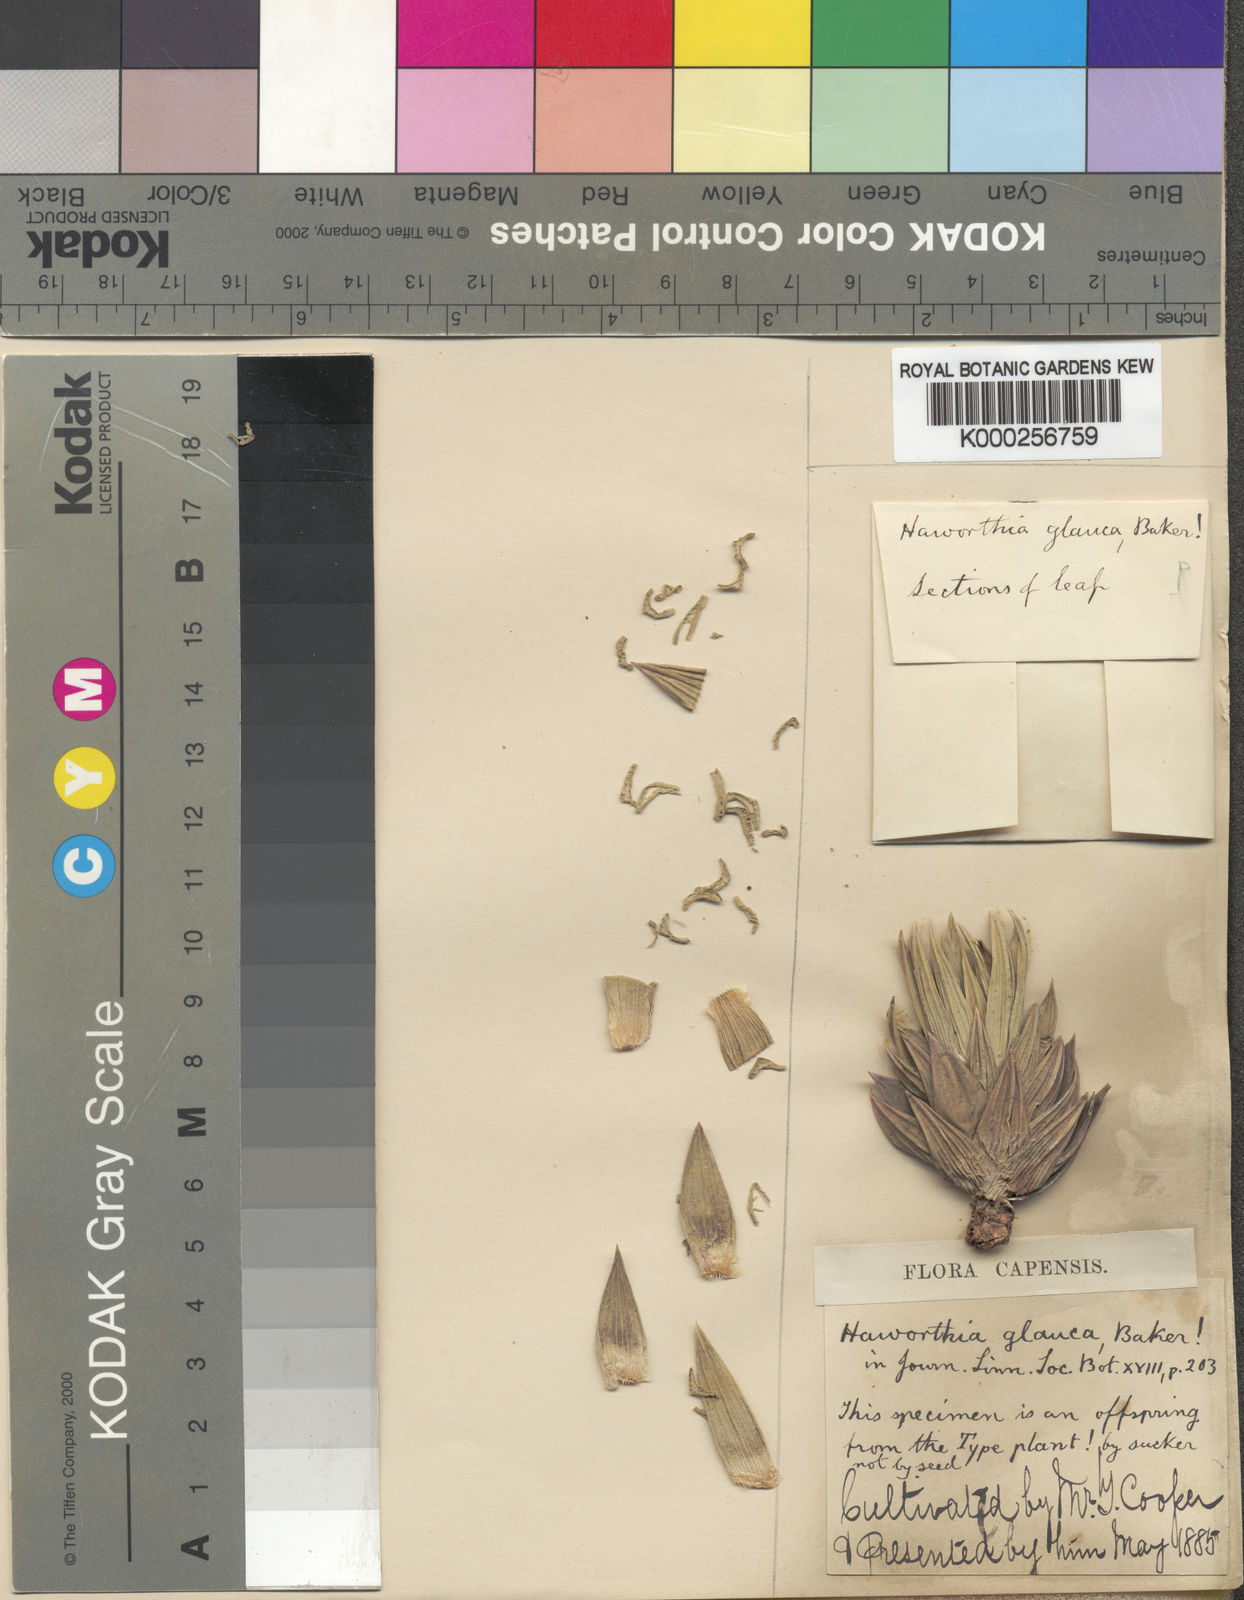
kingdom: Plantae
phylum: Tracheophyta
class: Liliopsida
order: Asparagales
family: Asphodelaceae
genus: Haworthiopsis
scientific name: Haworthiopsis glauca
